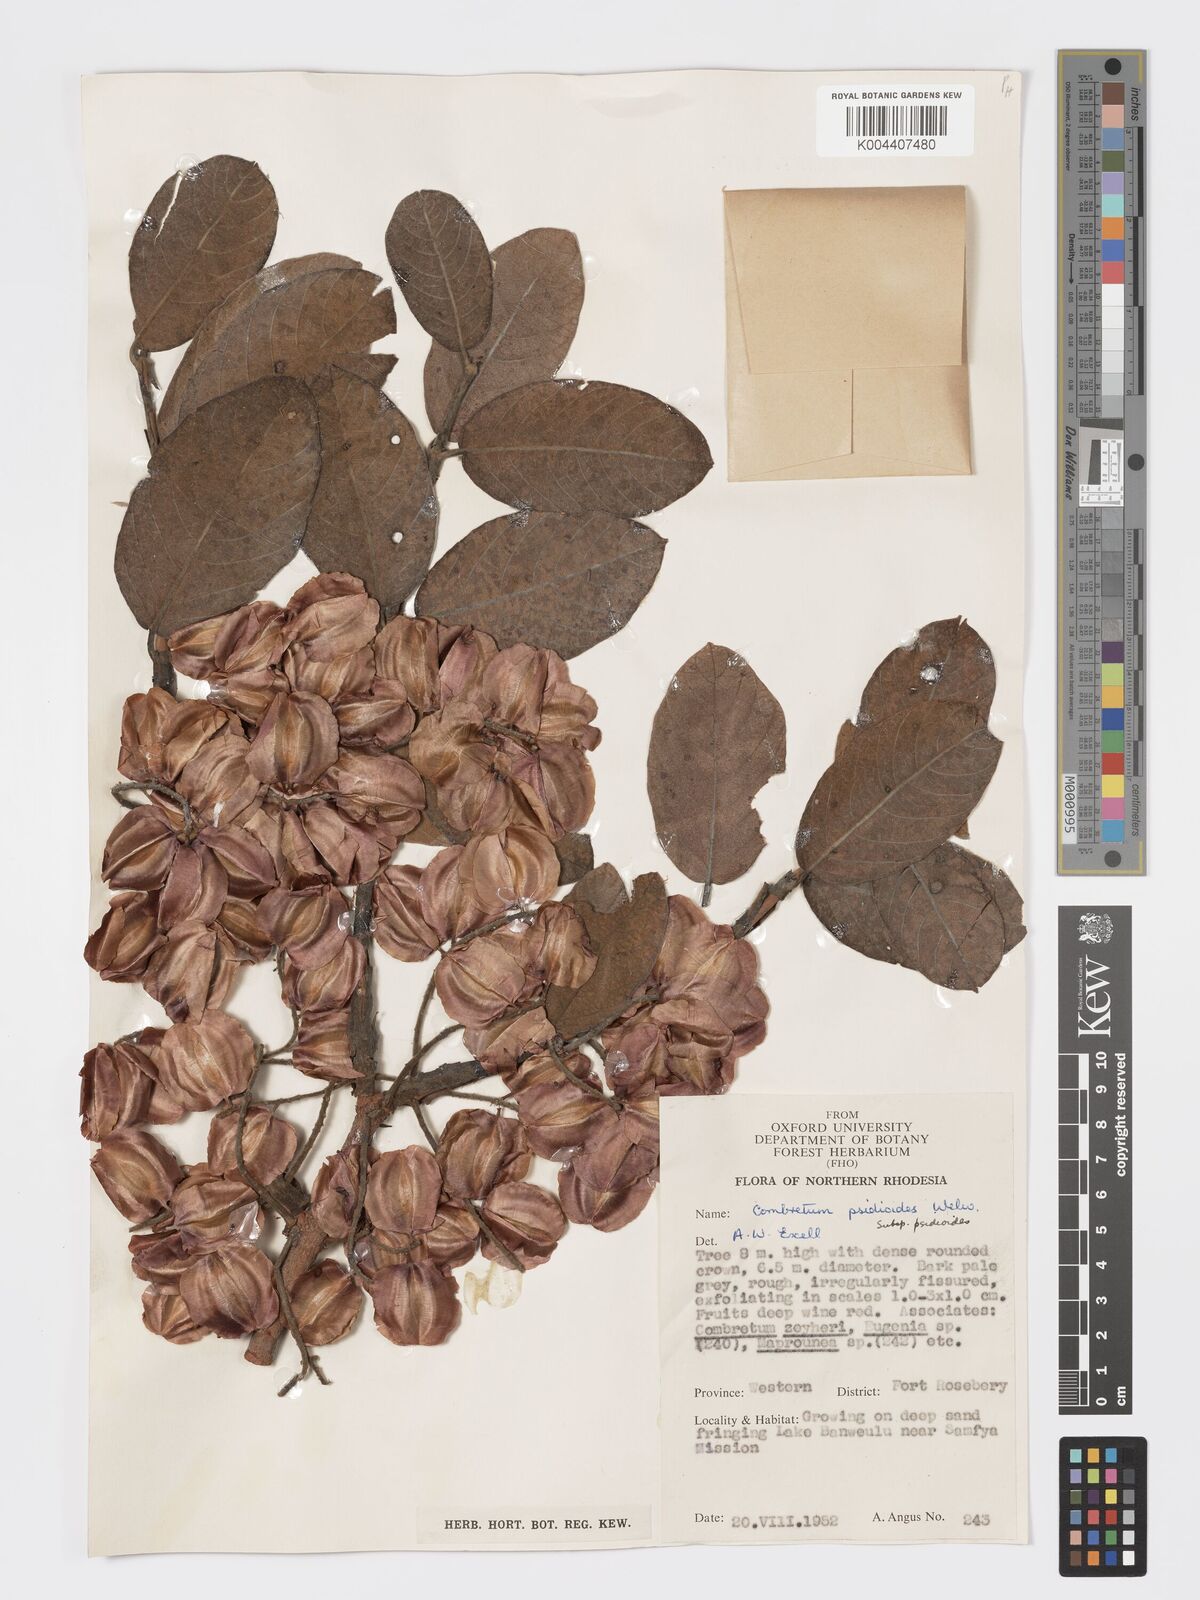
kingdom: Plantae
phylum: Tracheophyta
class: Magnoliopsida
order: Myrtales
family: Combretaceae
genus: Combretum
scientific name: Combretum psidioides
